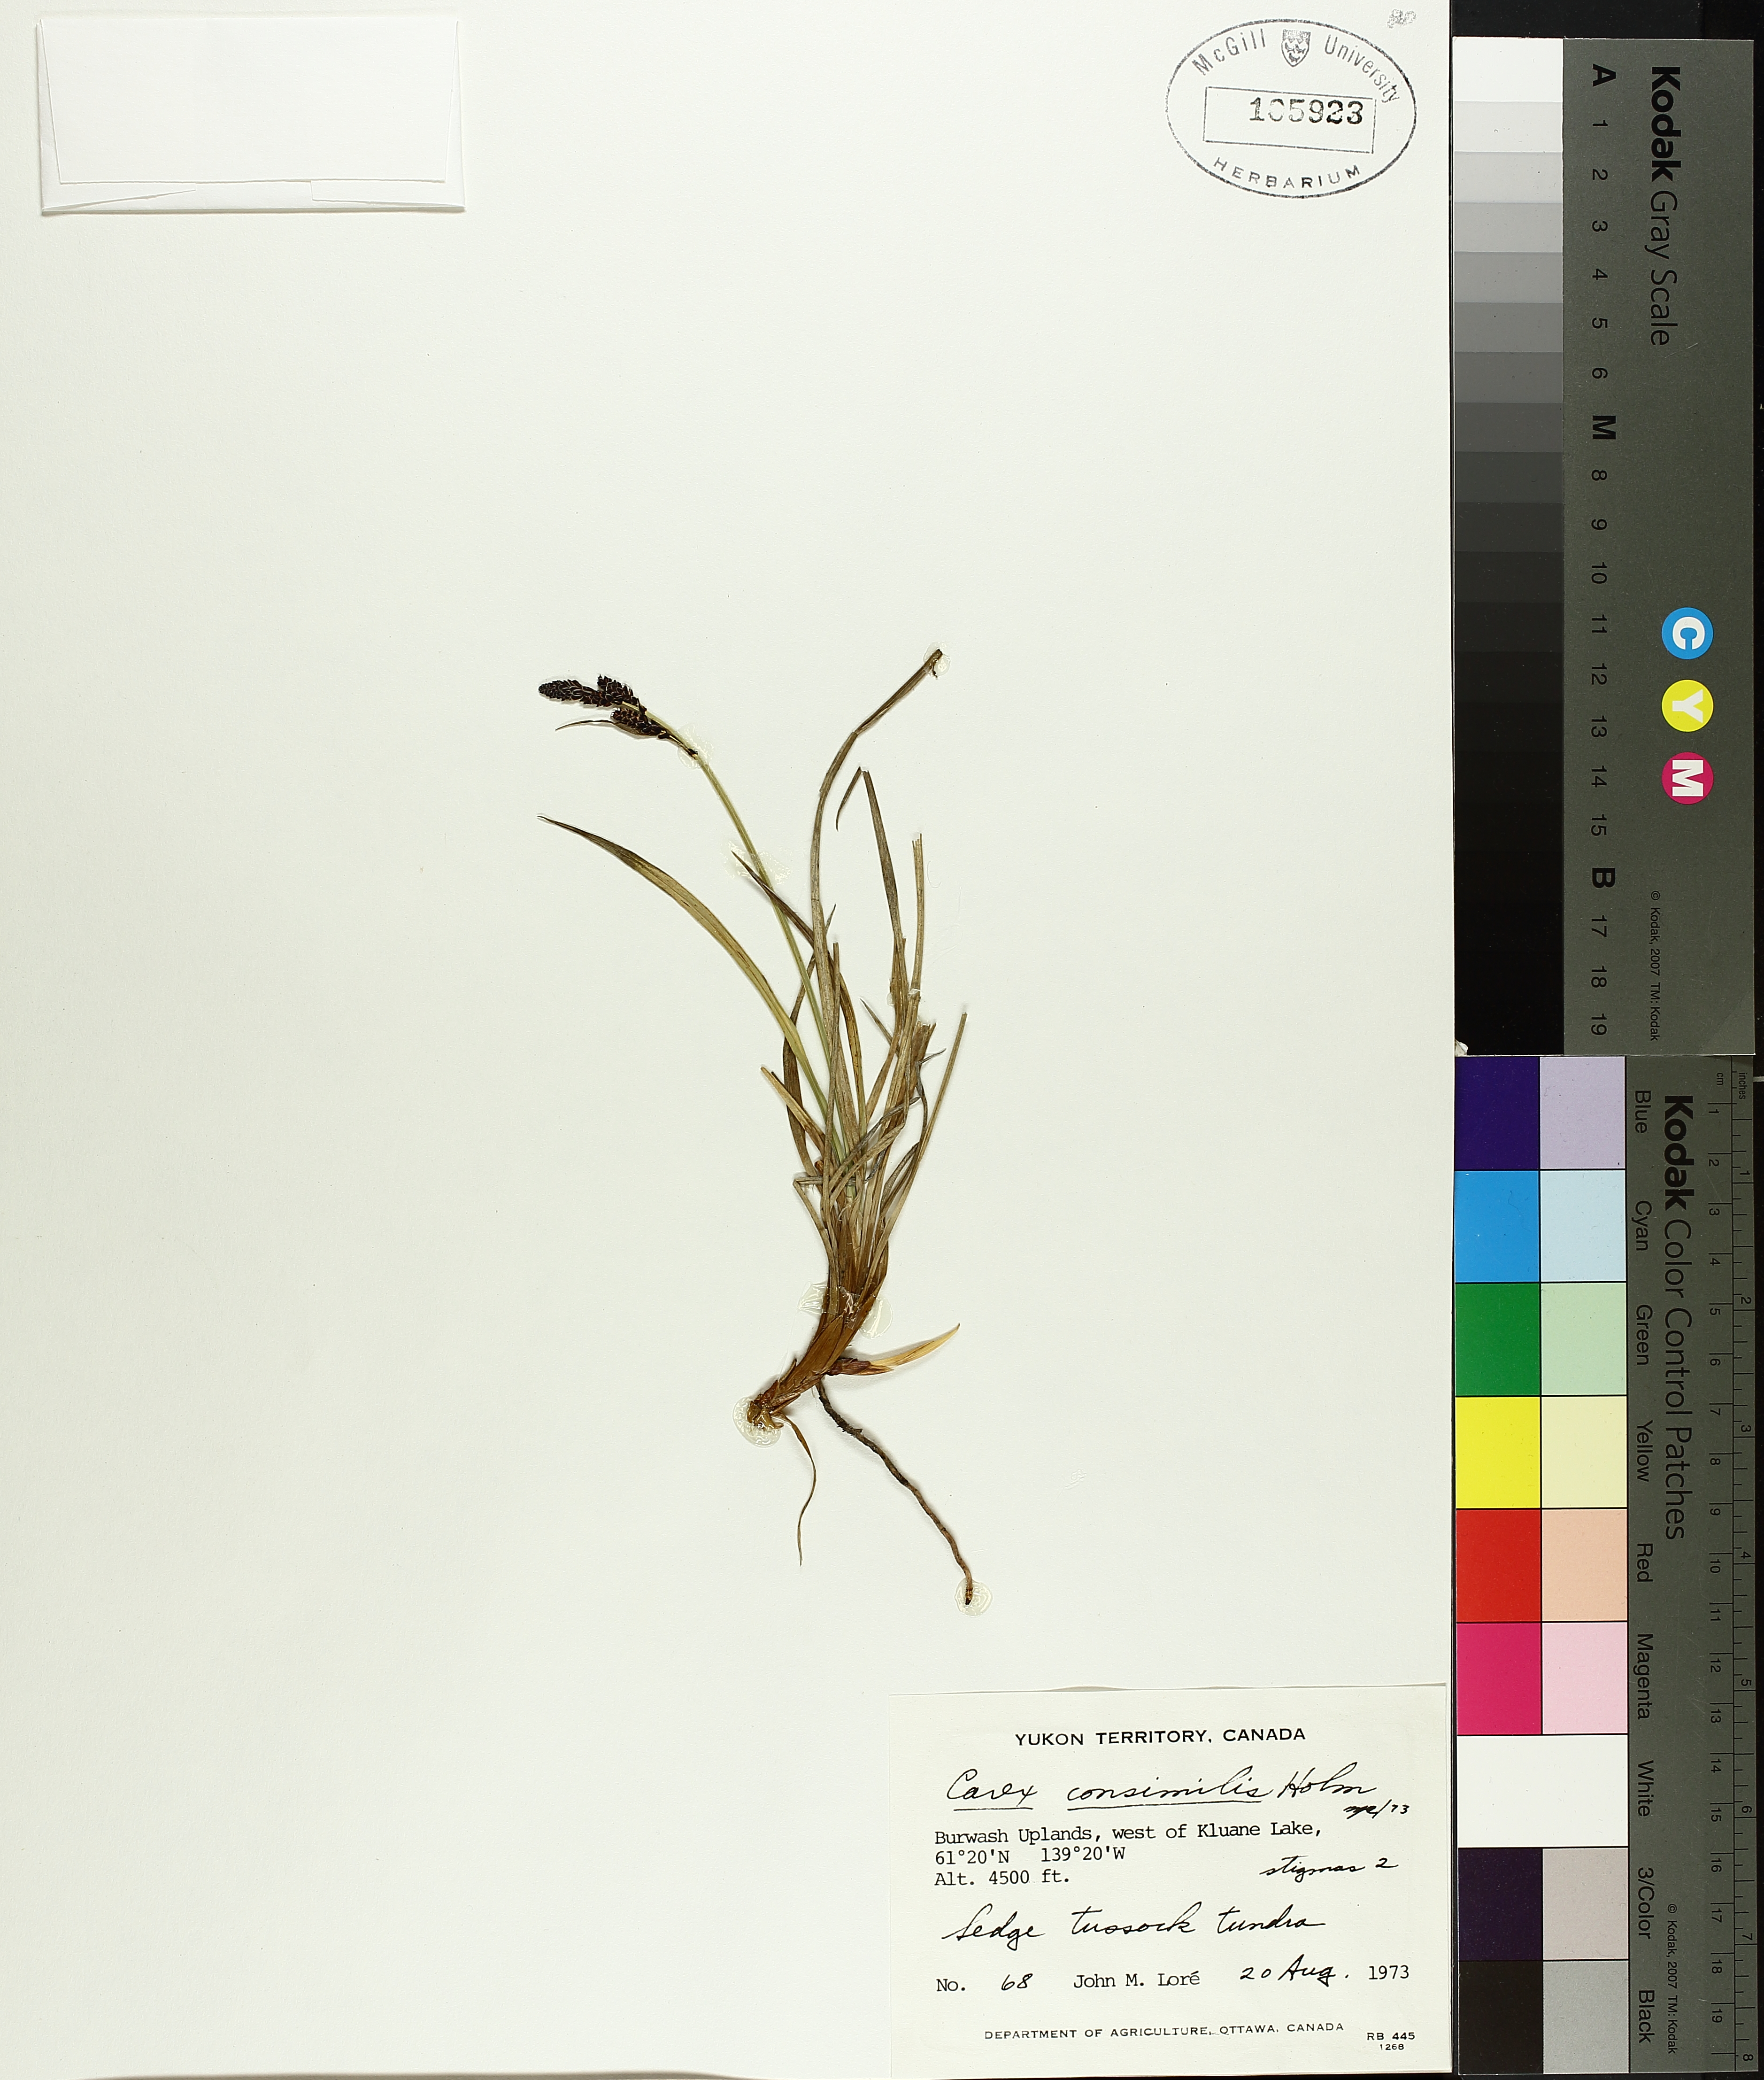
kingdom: Plantae
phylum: Tracheophyta
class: Liliopsida
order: Poales
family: Cyperaceae
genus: Carex
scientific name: Carex bigelowii
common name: Stiff sedge
